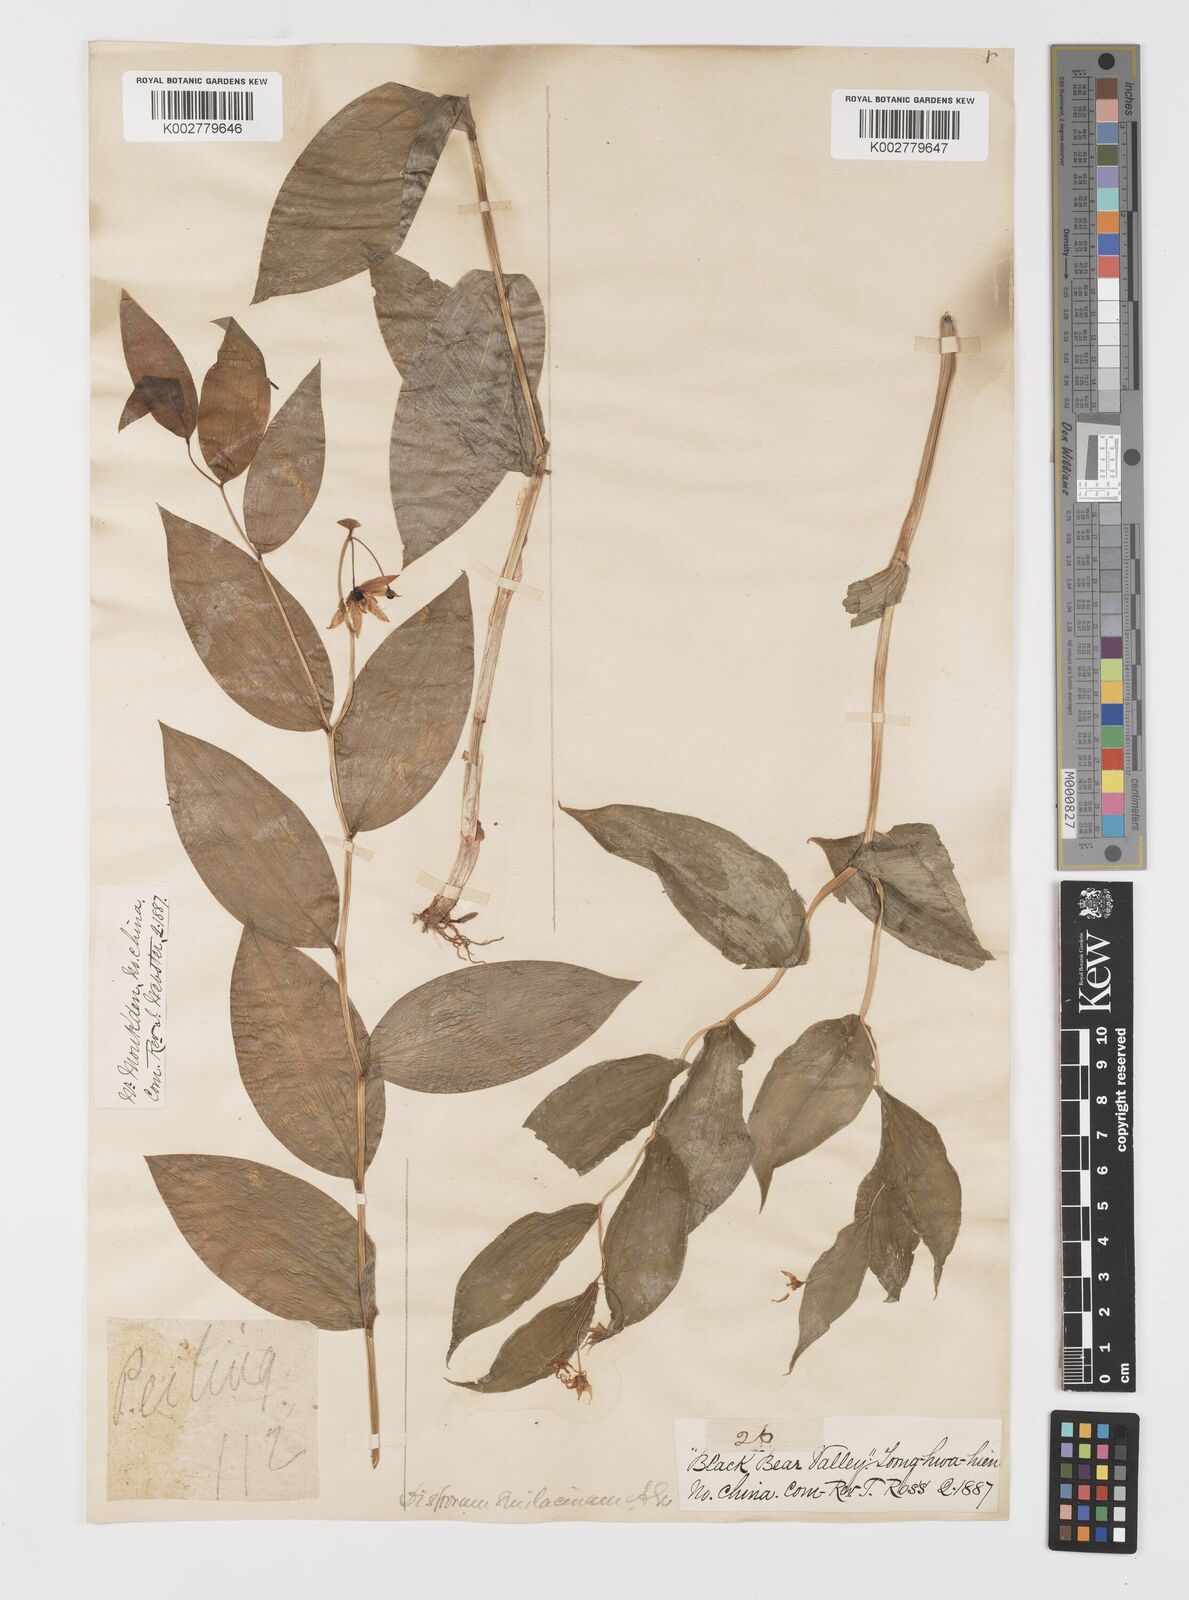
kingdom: Plantae
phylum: Tracheophyta
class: Liliopsida
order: Liliales
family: Colchicaceae
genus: Disporum
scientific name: Disporum viridescens
